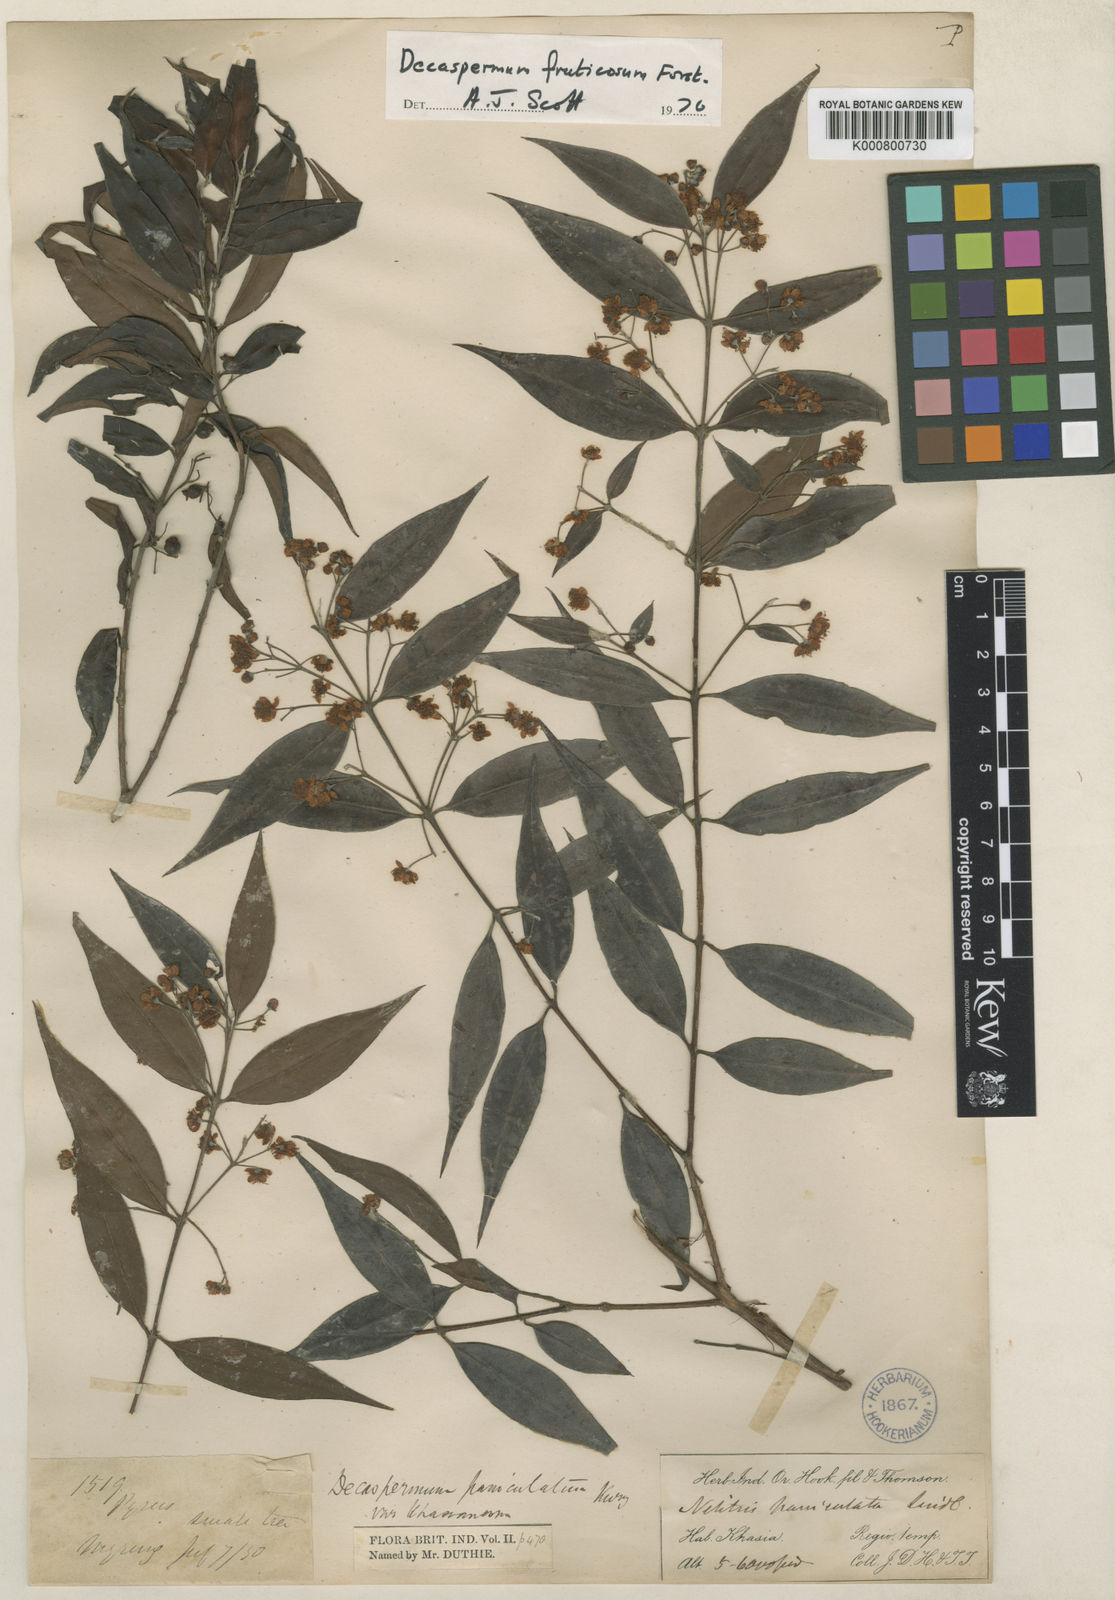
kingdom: Plantae
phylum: Tracheophyta
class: Magnoliopsida
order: Myrtales
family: Myrtaceae
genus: Decaspermum
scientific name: Decaspermum parviflorum
